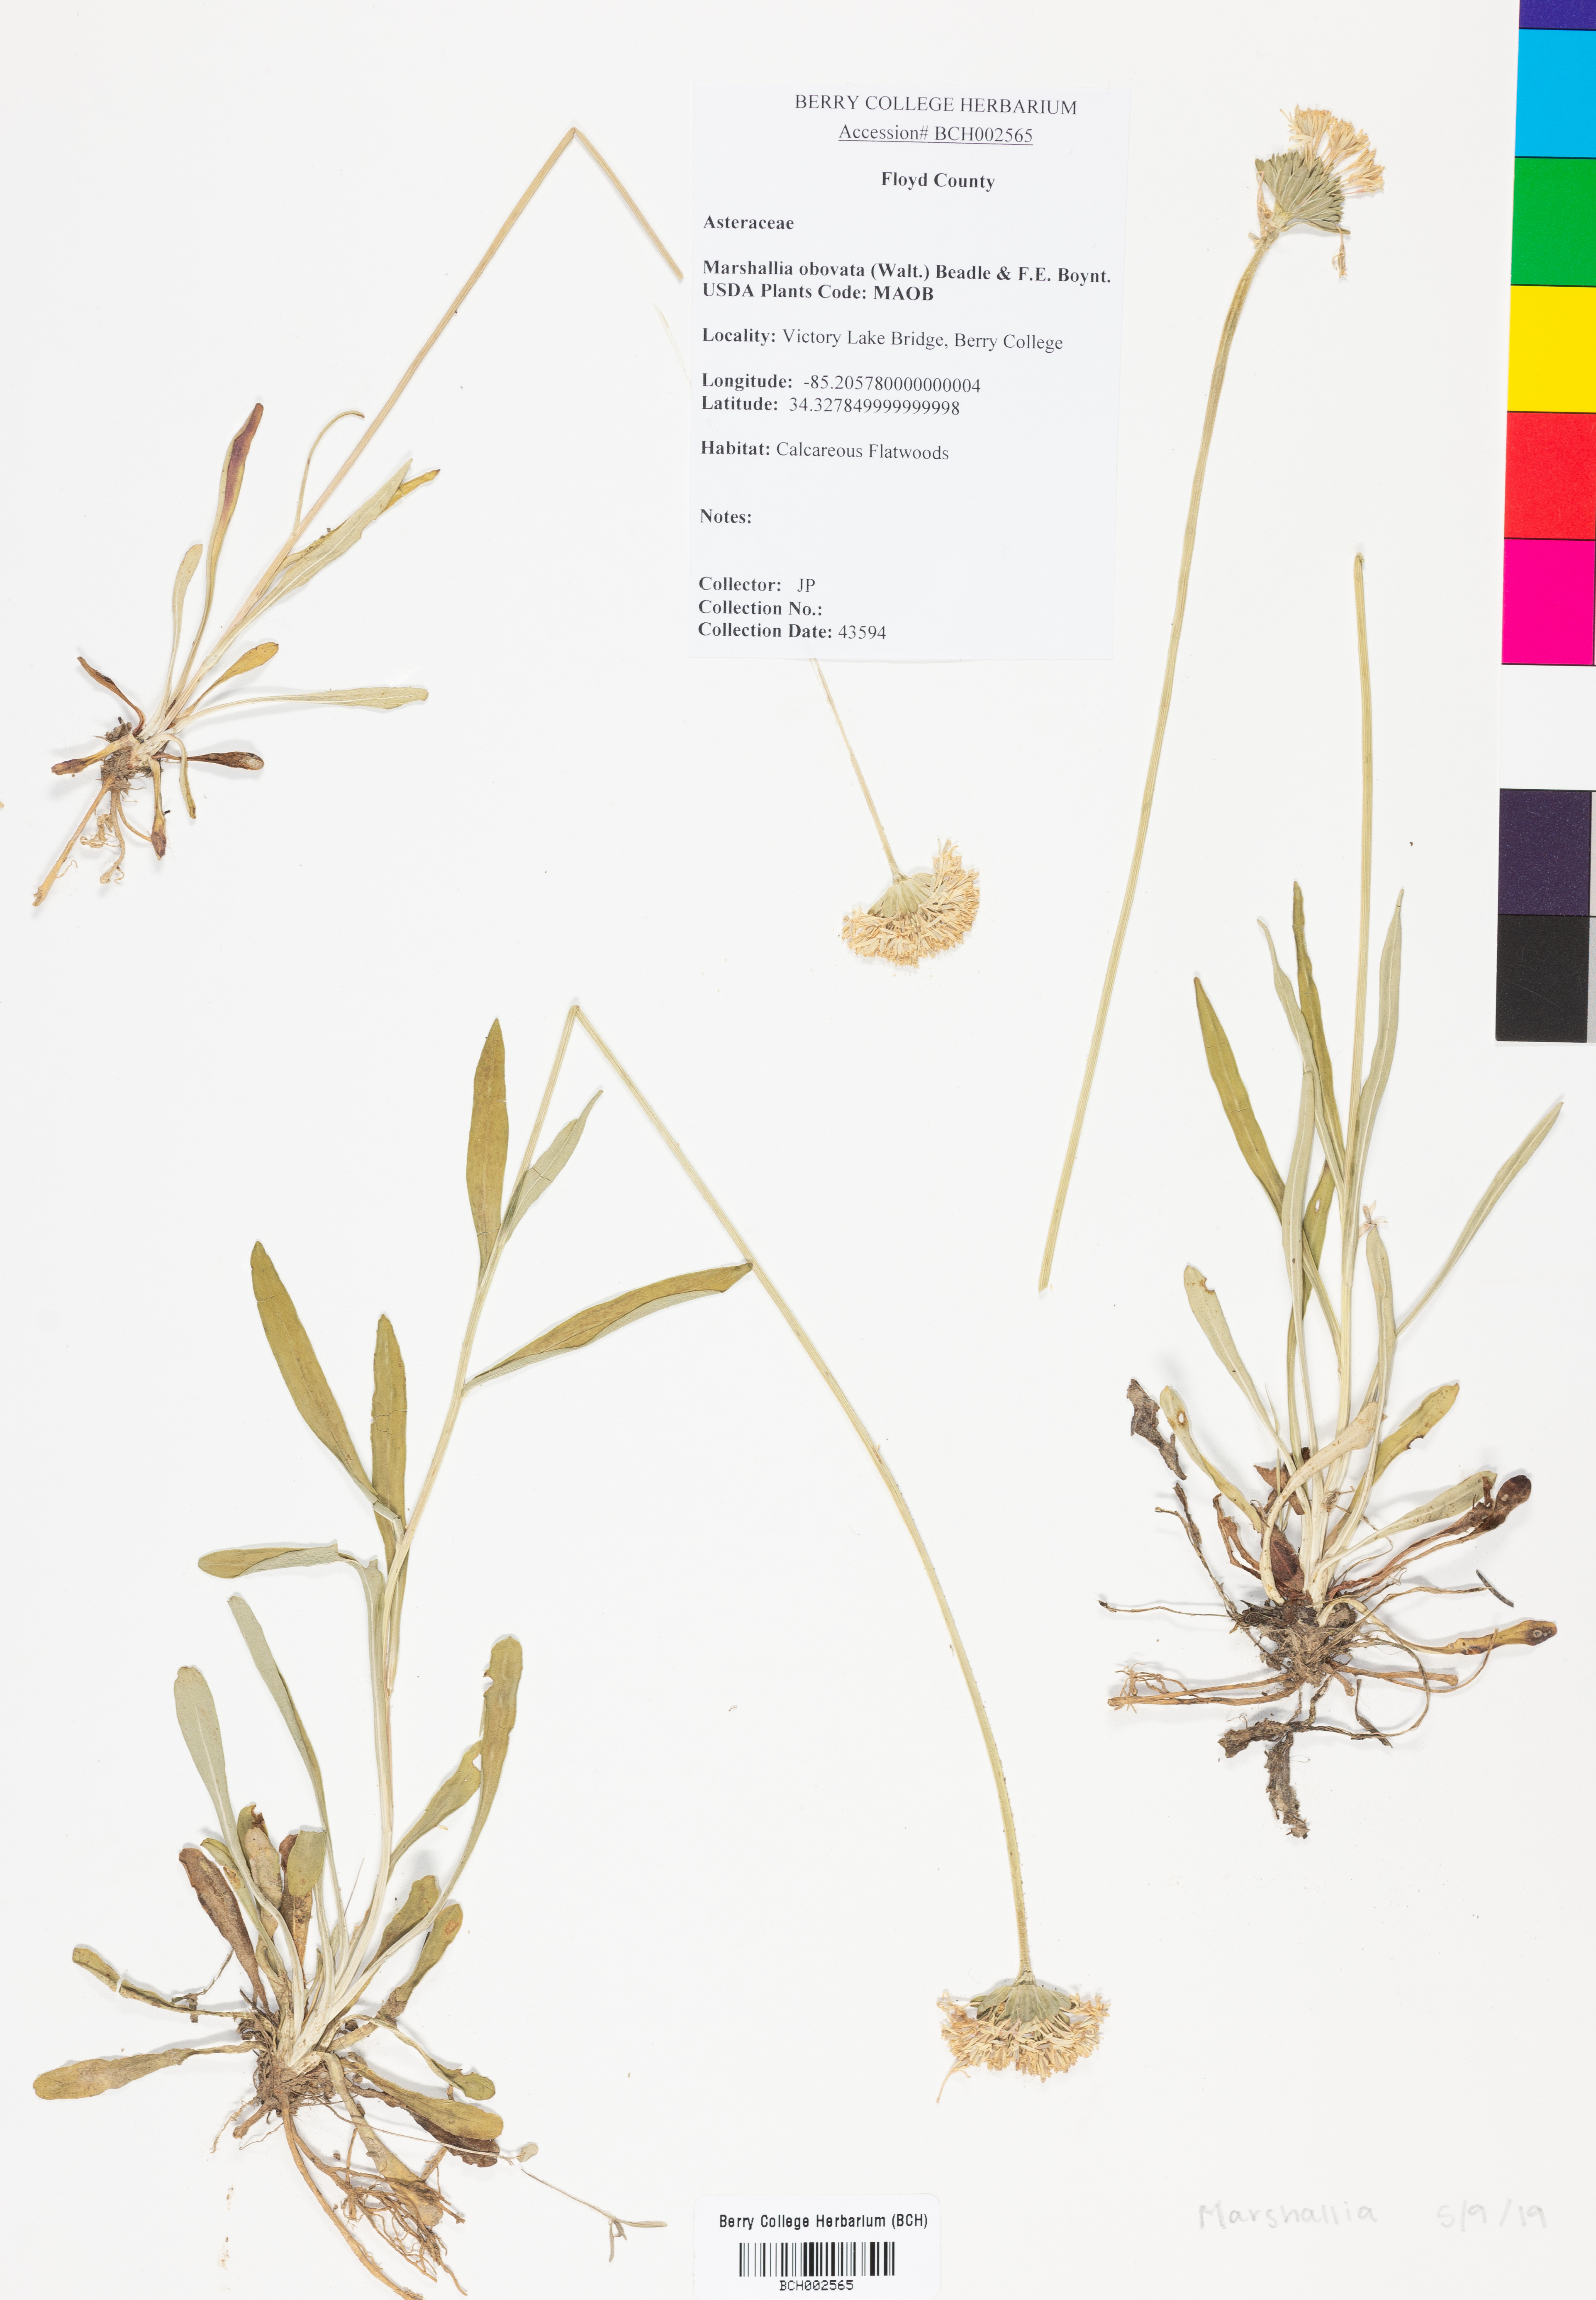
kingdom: Plantae
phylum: Tracheophyta
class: Magnoliopsida
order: Asterales
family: Asteraceae
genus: Marshallia
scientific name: Marshallia obovata
